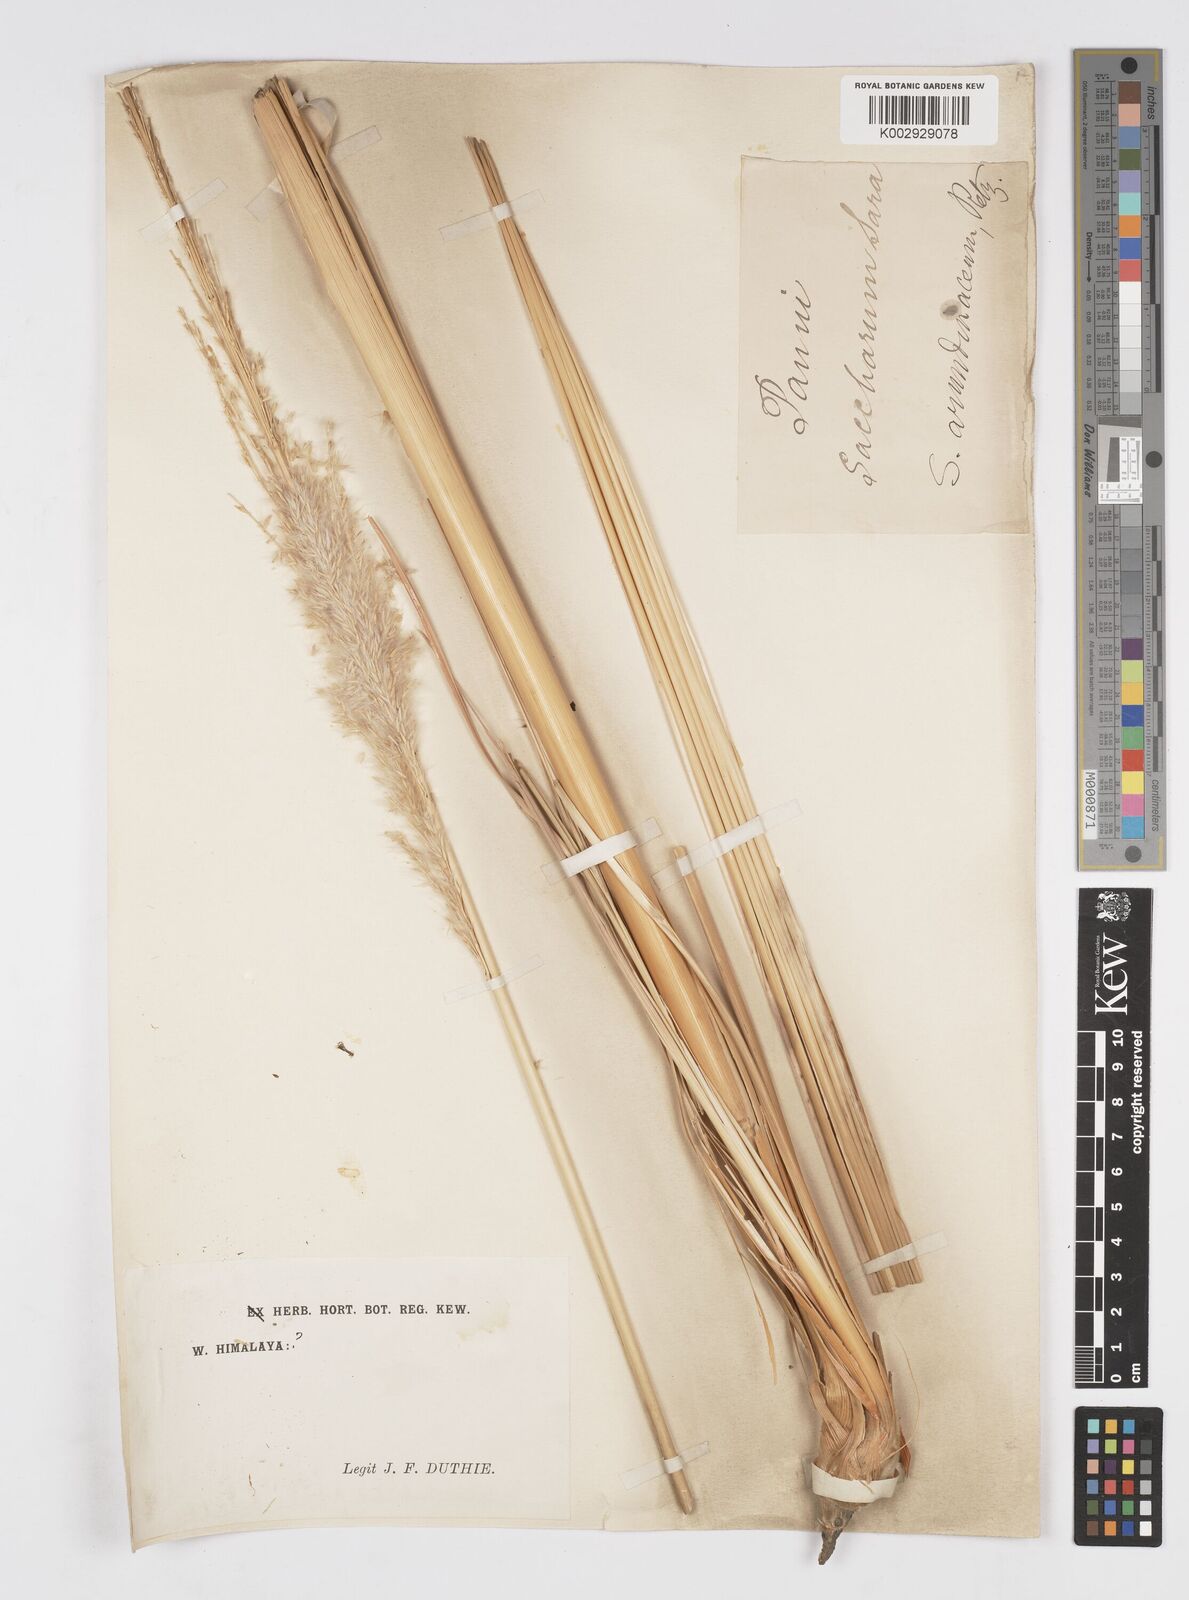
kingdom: Plantae
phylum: Tracheophyta
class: Liliopsida
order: Poales
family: Poaceae
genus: Tripidium
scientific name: Tripidium bengalense
